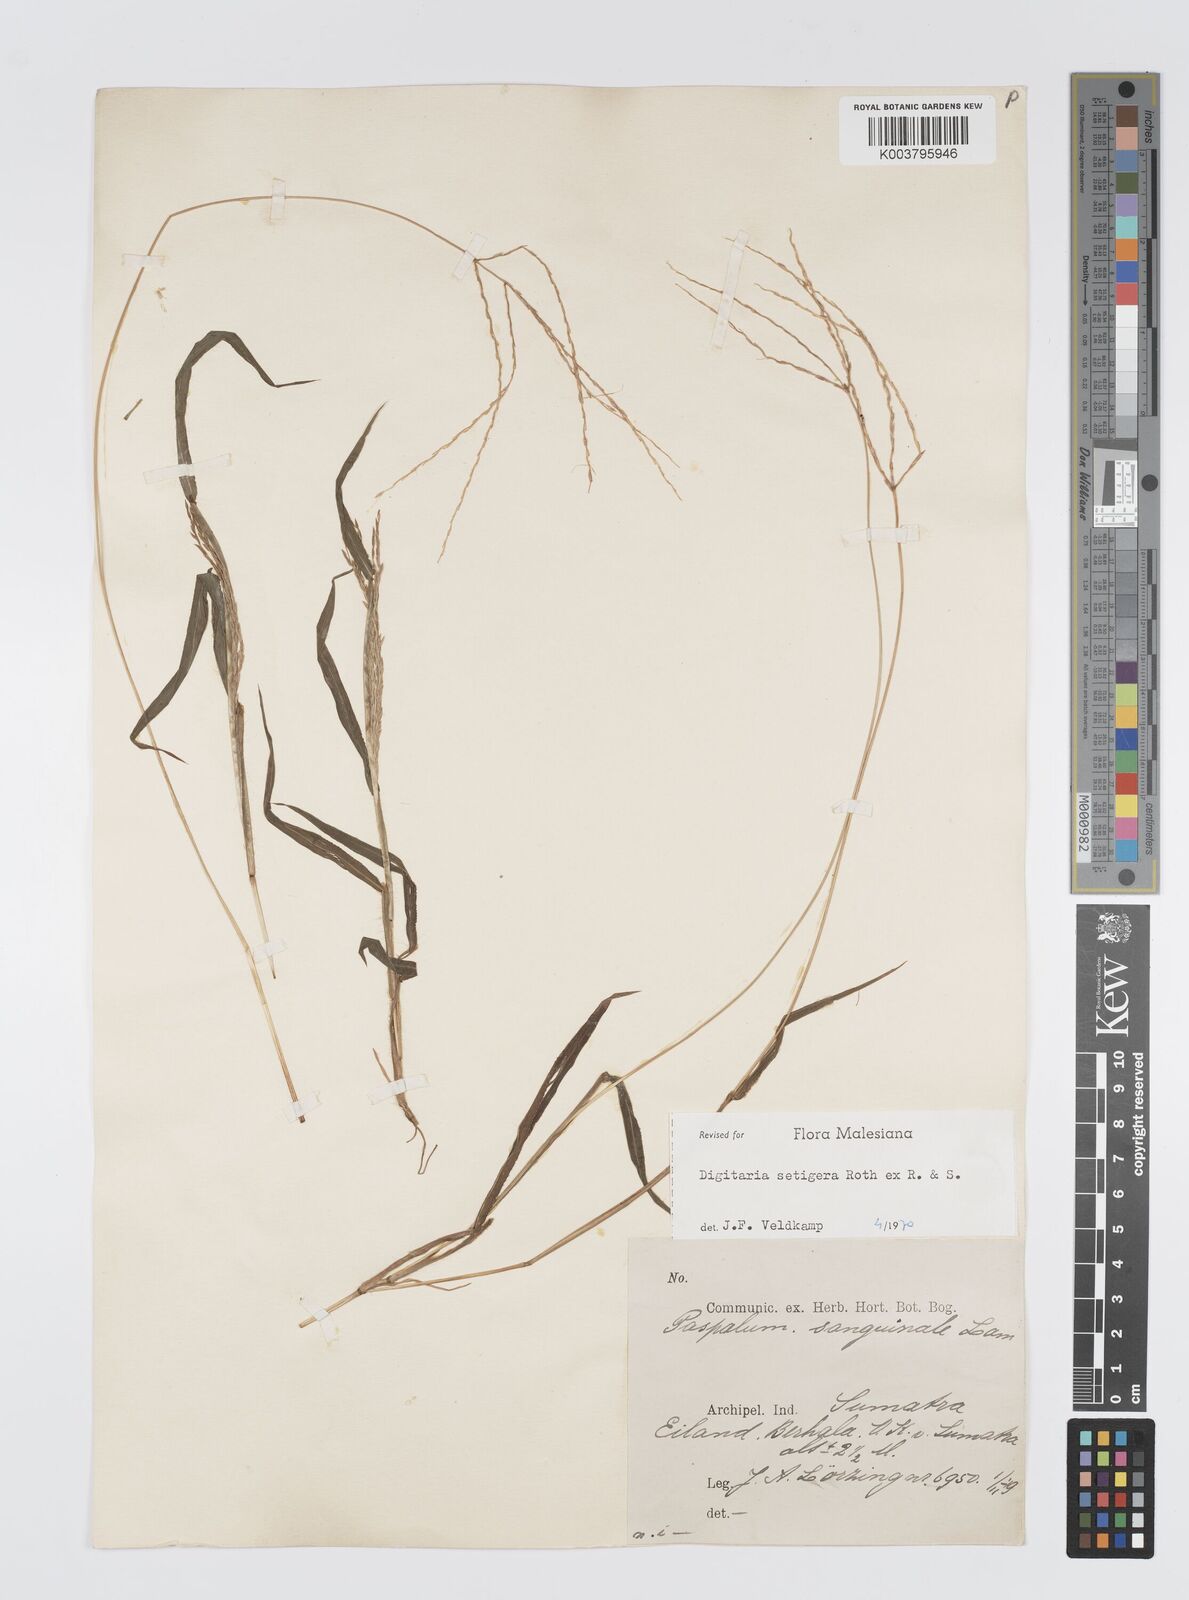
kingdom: Plantae
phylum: Tracheophyta
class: Liliopsida
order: Poales
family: Poaceae
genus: Digitaria
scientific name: Digitaria setigera
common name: East indian crabgrass
